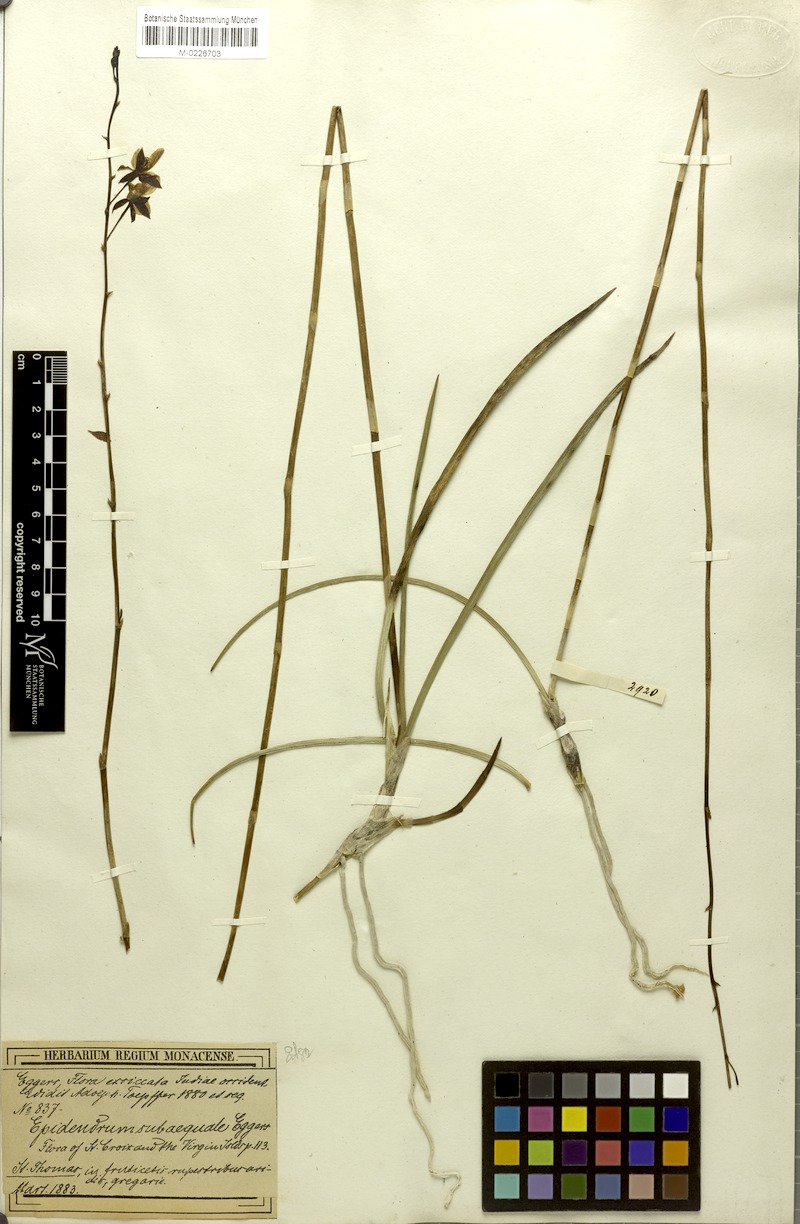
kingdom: Plantae
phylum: Tracheophyta
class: Liliopsida
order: Asparagales
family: Orchidaceae
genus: Tetramicra
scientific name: Tetramicra canaliculata
